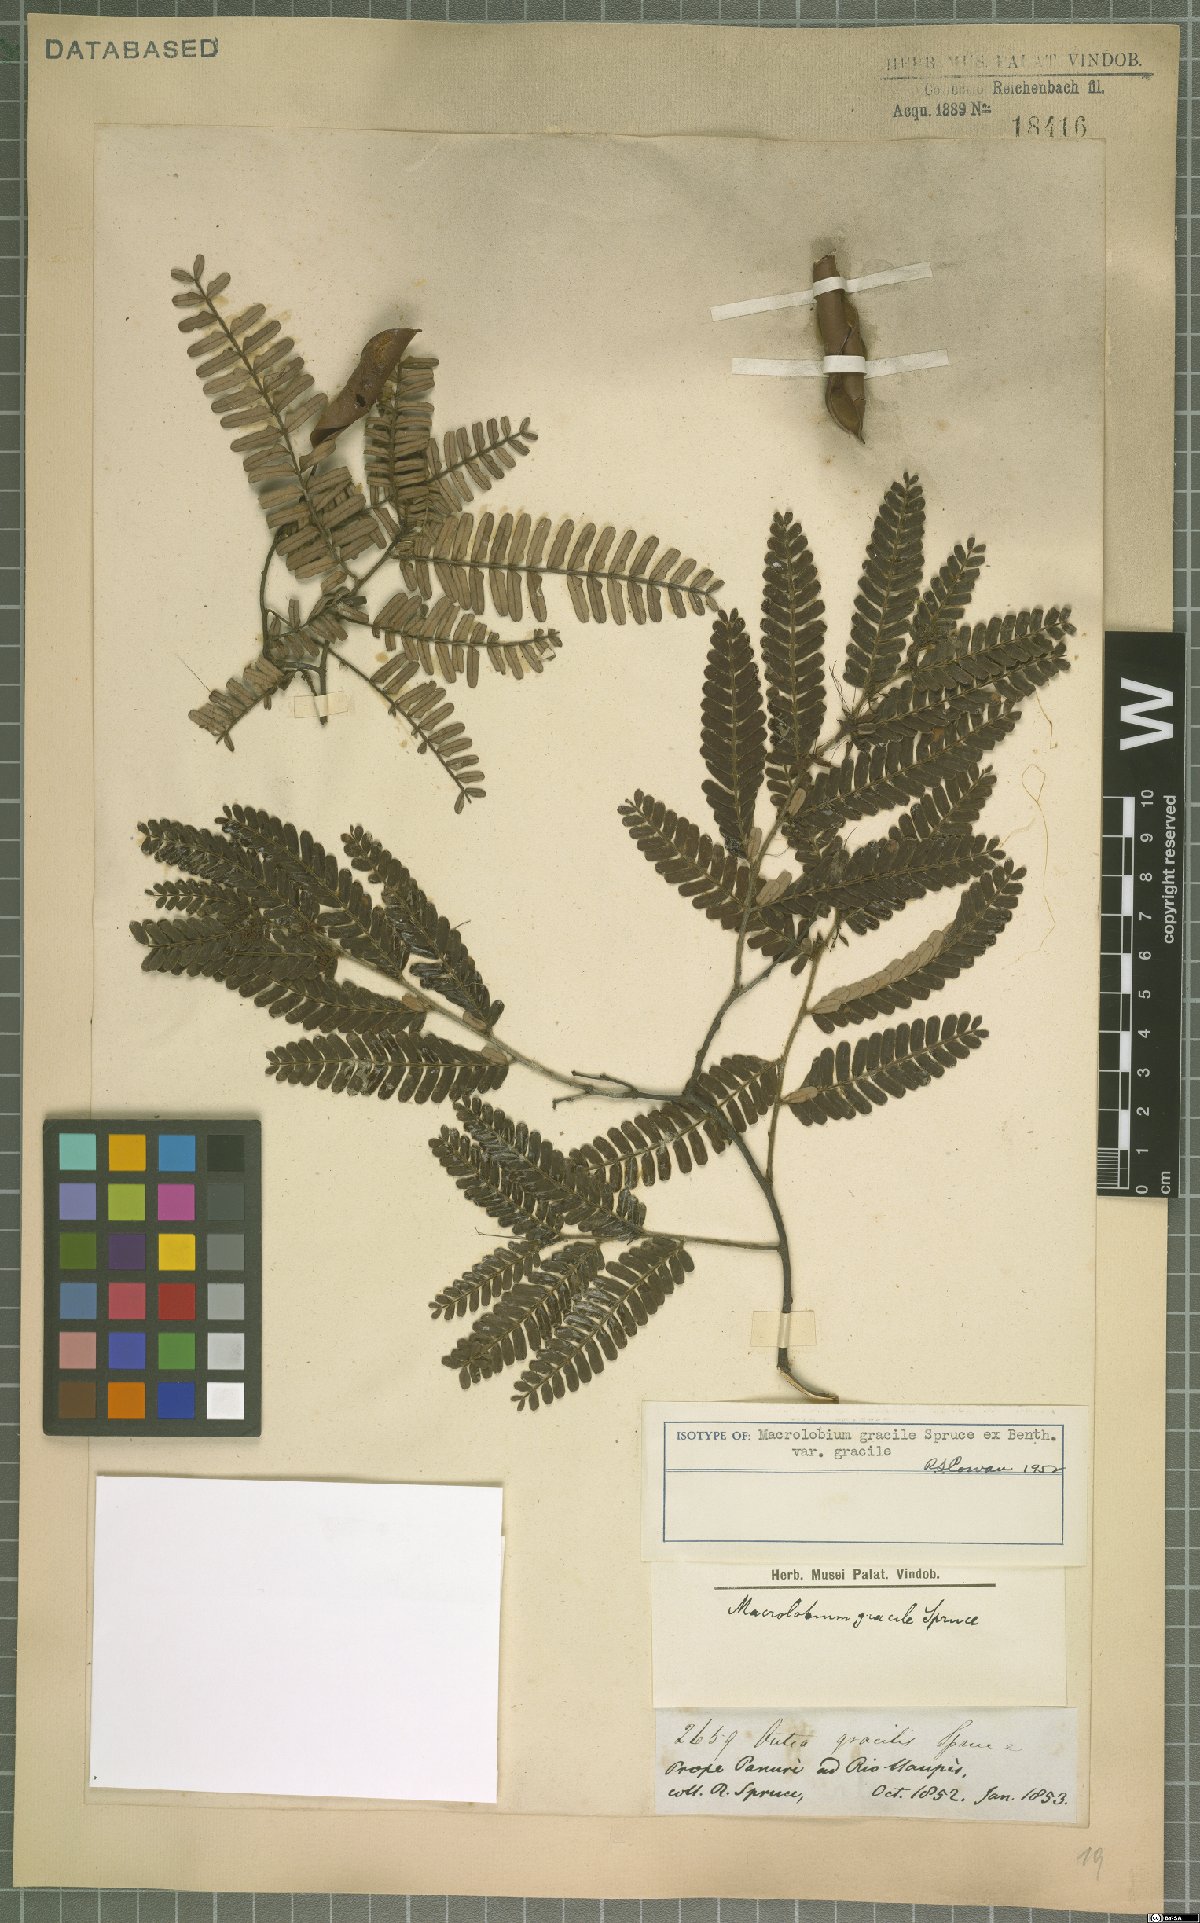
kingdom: Plantae
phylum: Tracheophyta
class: Magnoliopsida
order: Fabales
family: Fabaceae
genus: Macrolobium
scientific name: Macrolobium gracile
